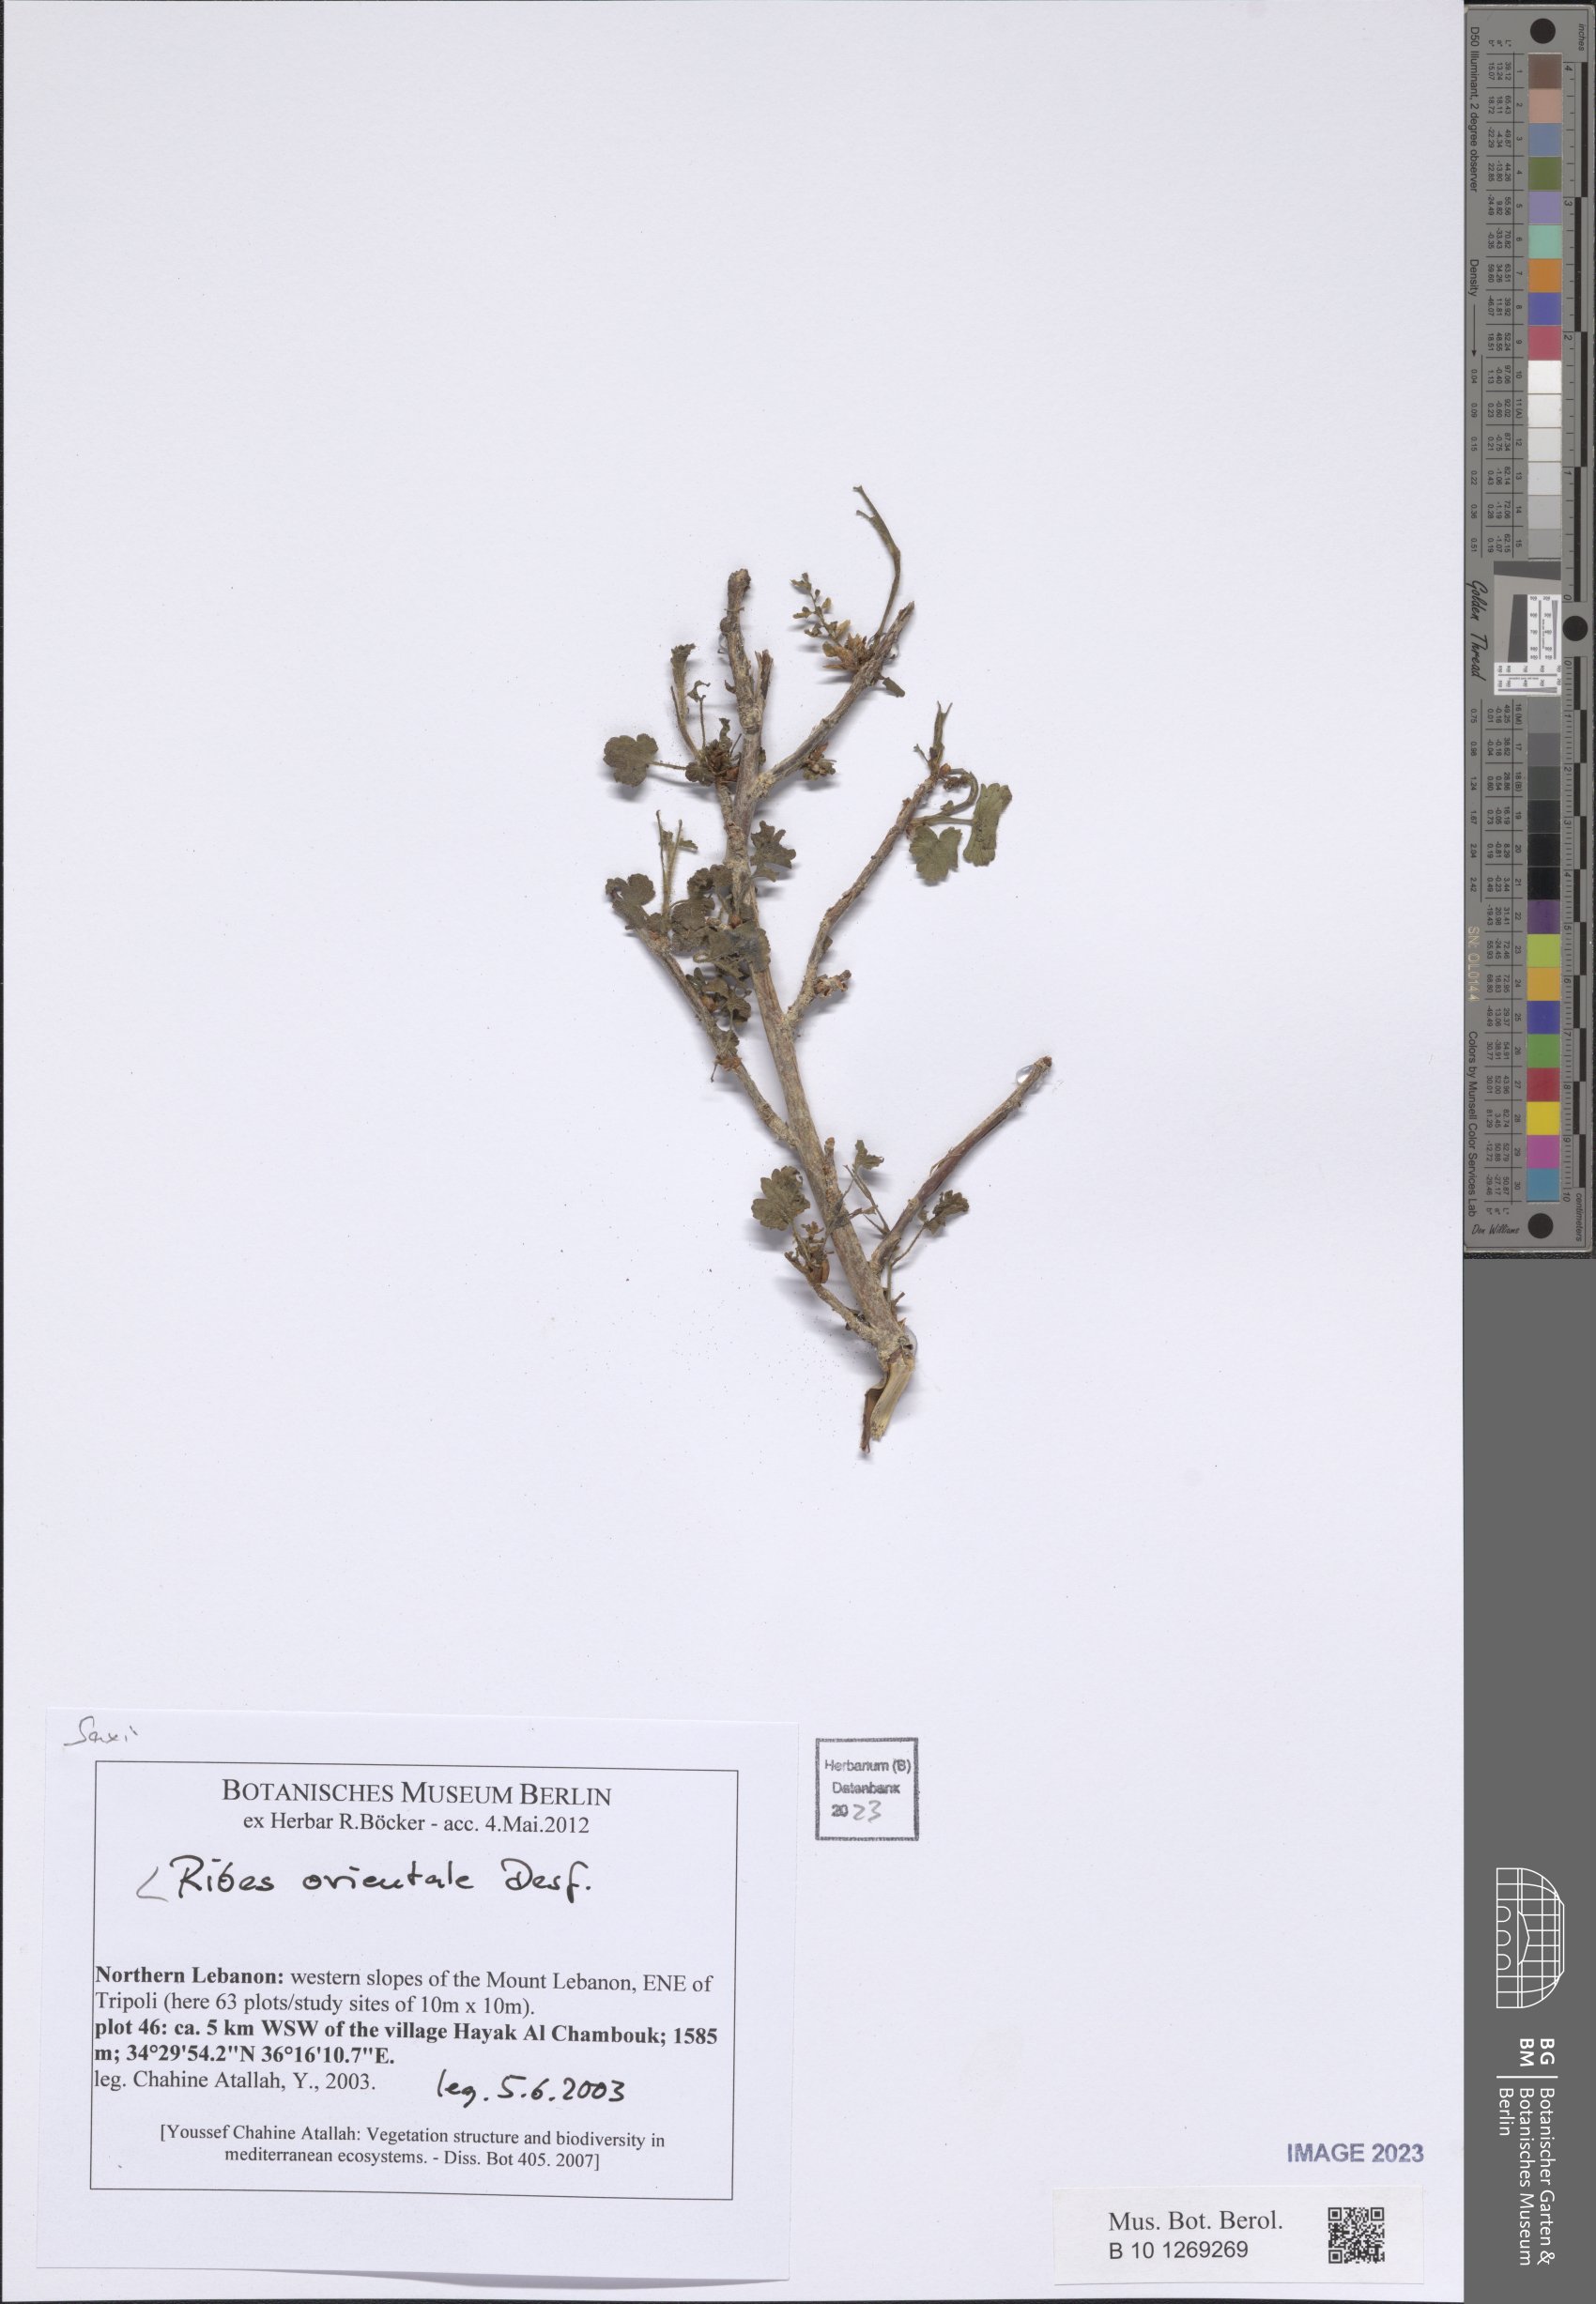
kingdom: Plantae
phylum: Tracheophyta
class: Magnoliopsida
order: Saxifragales
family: Grossulariaceae
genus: Ribes
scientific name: Ribes orientale
